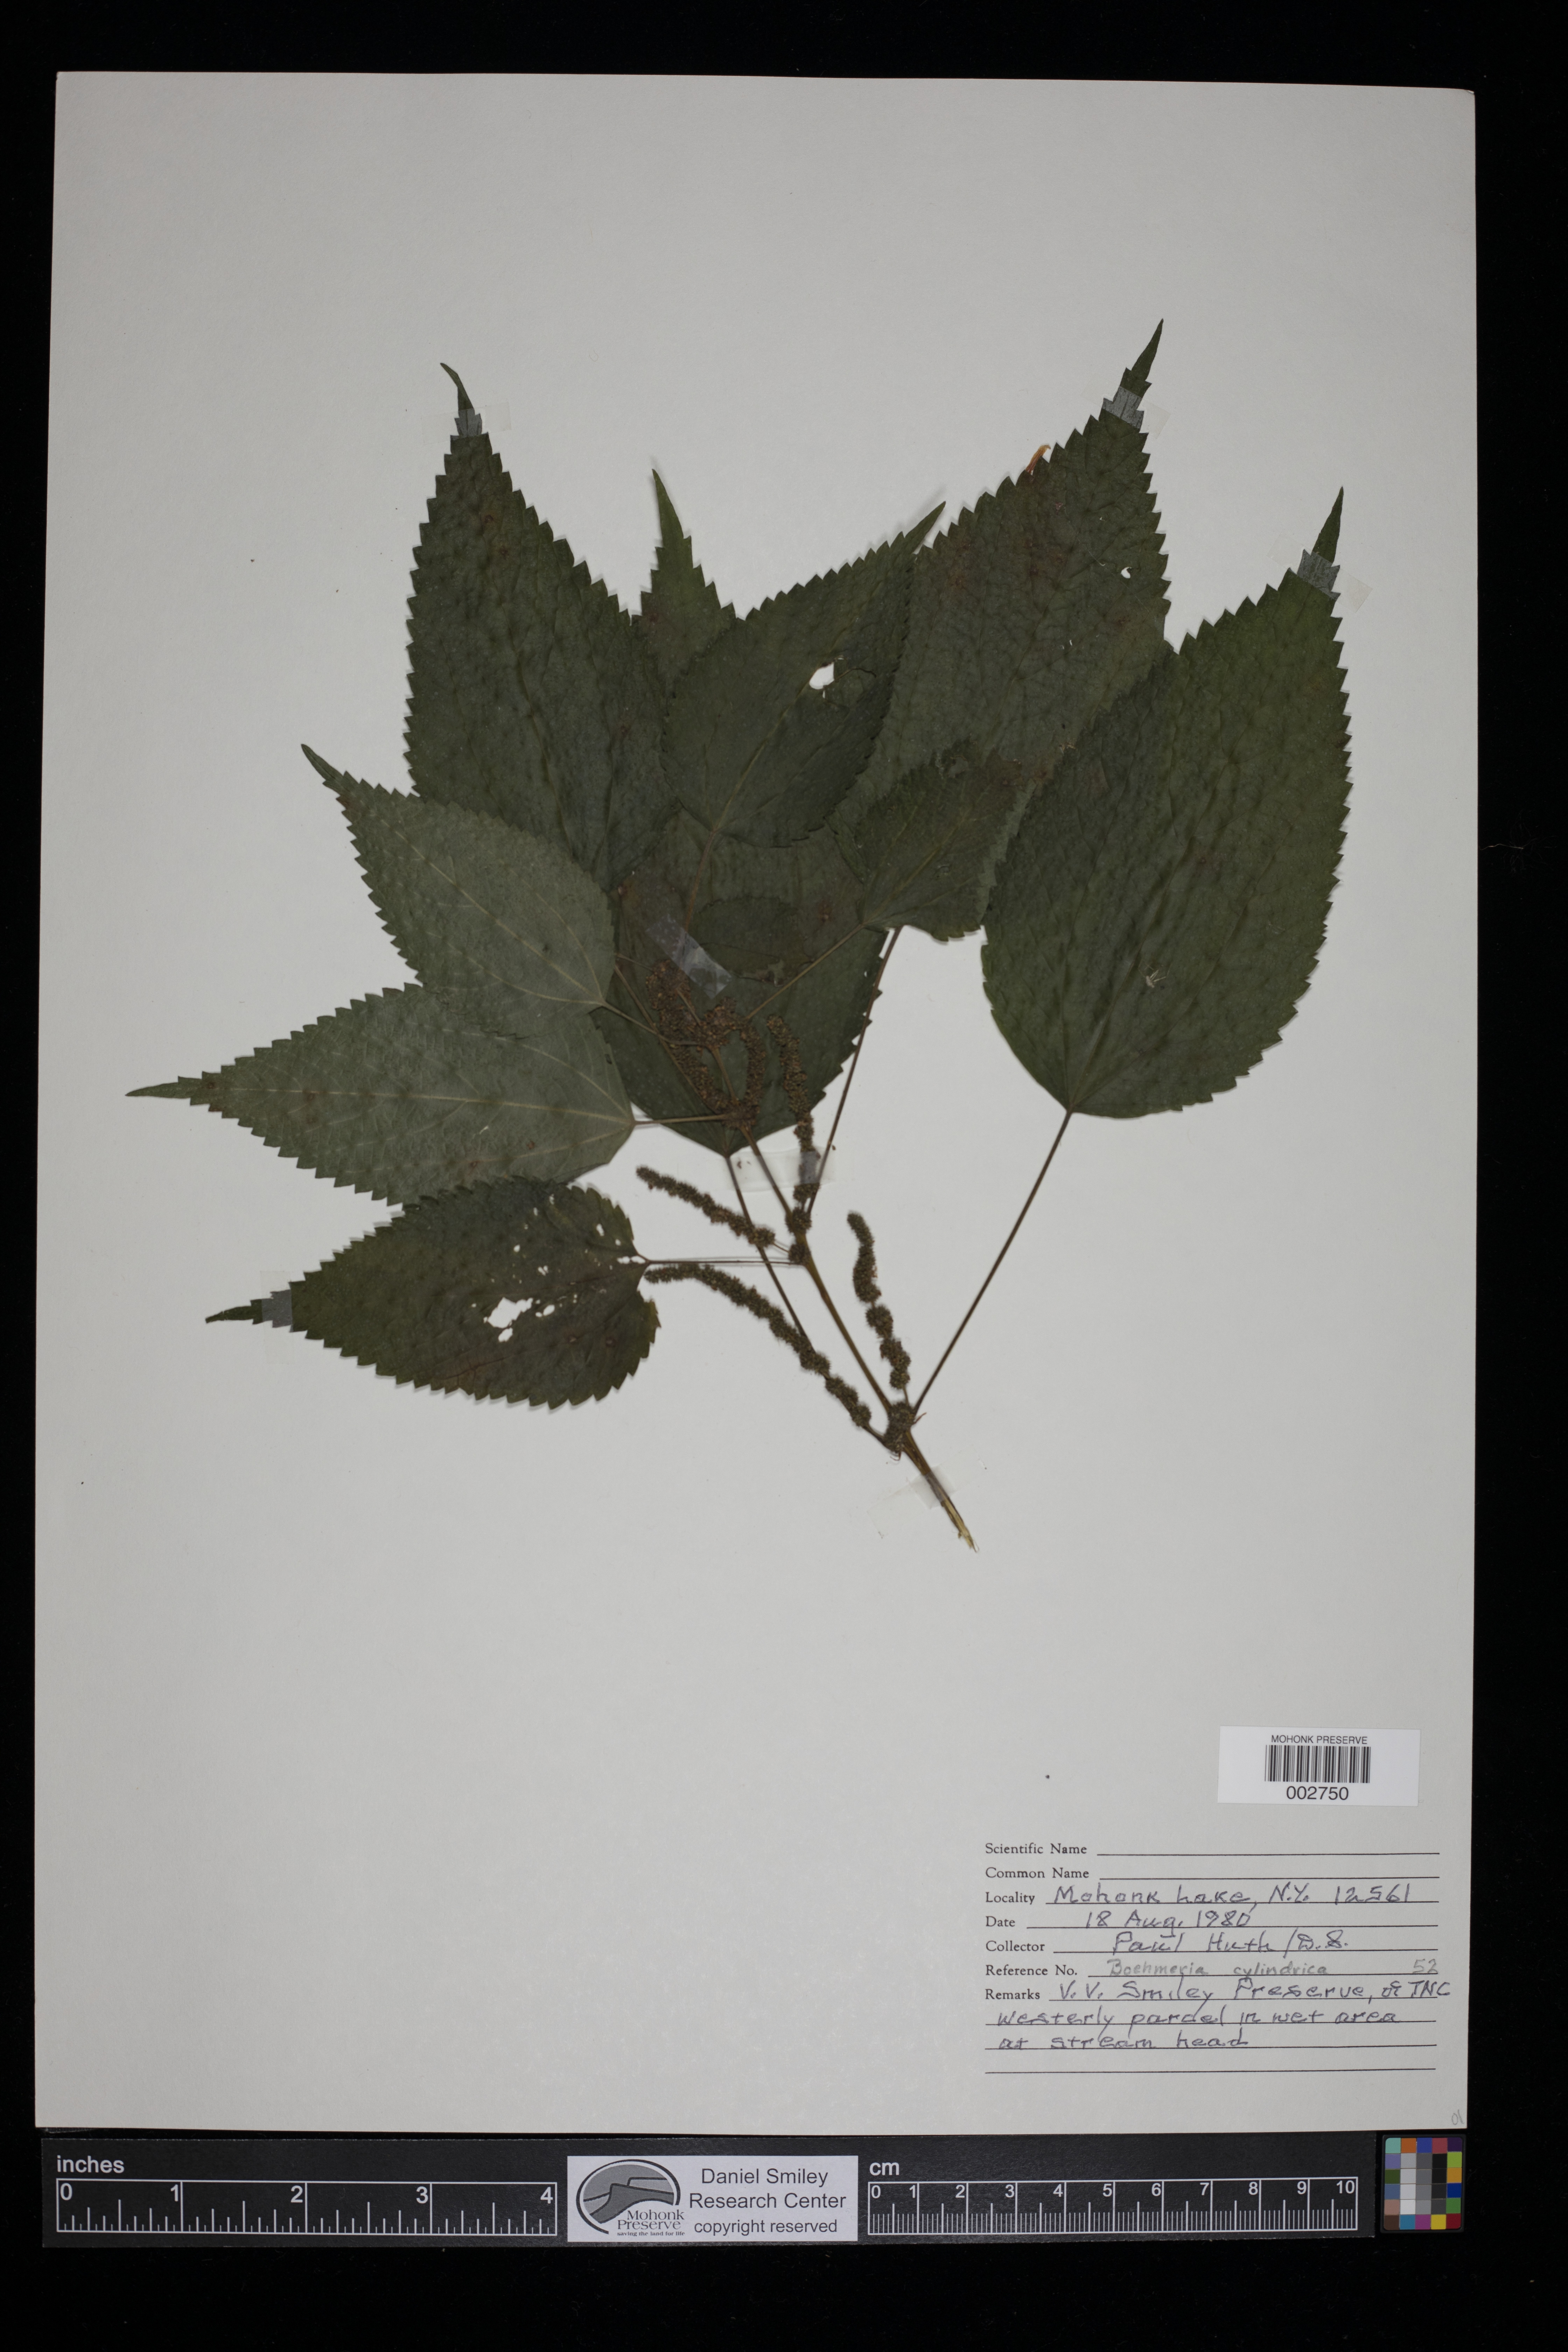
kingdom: Plantae
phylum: Tracheophyta
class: Magnoliopsida
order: Rosales
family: Urticaceae
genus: Boehmeria
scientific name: Boehmeria cylindrica
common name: Bog-hemp
